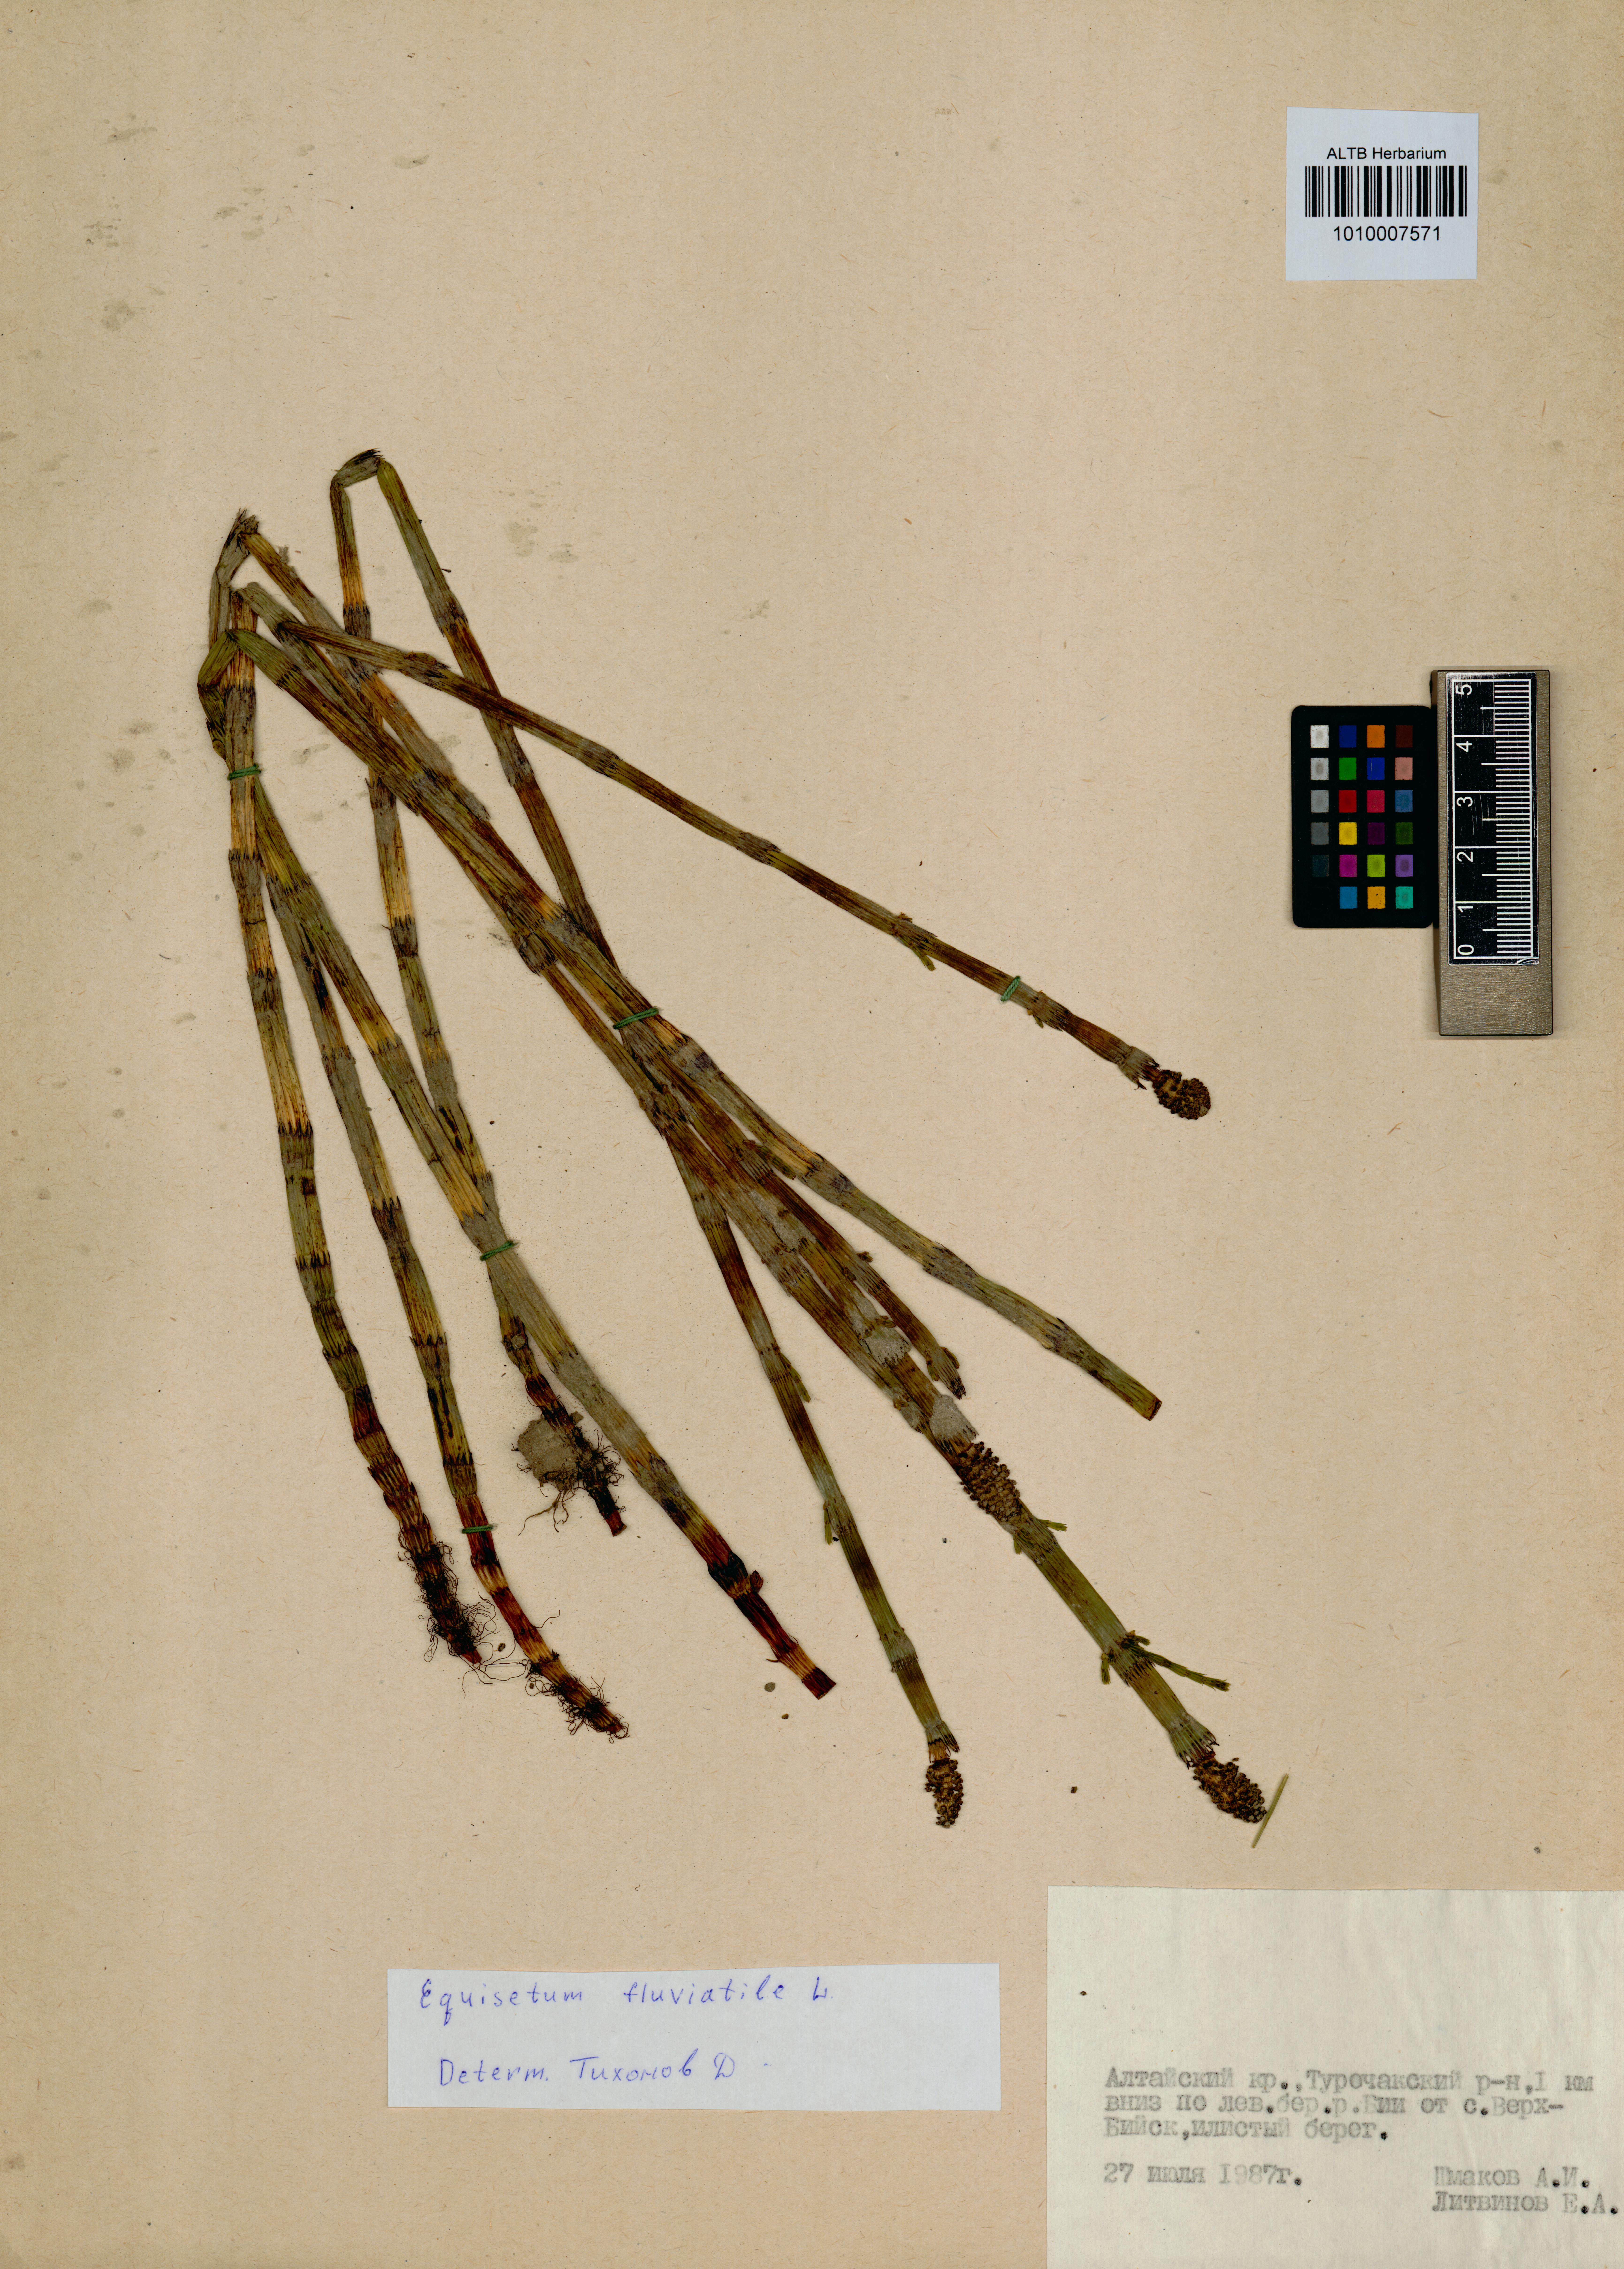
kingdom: Plantae
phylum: Tracheophyta
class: Polypodiopsida
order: Equisetales
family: Equisetaceae
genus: Equisetum
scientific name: Equisetum fluviatile
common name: Water horsetail
